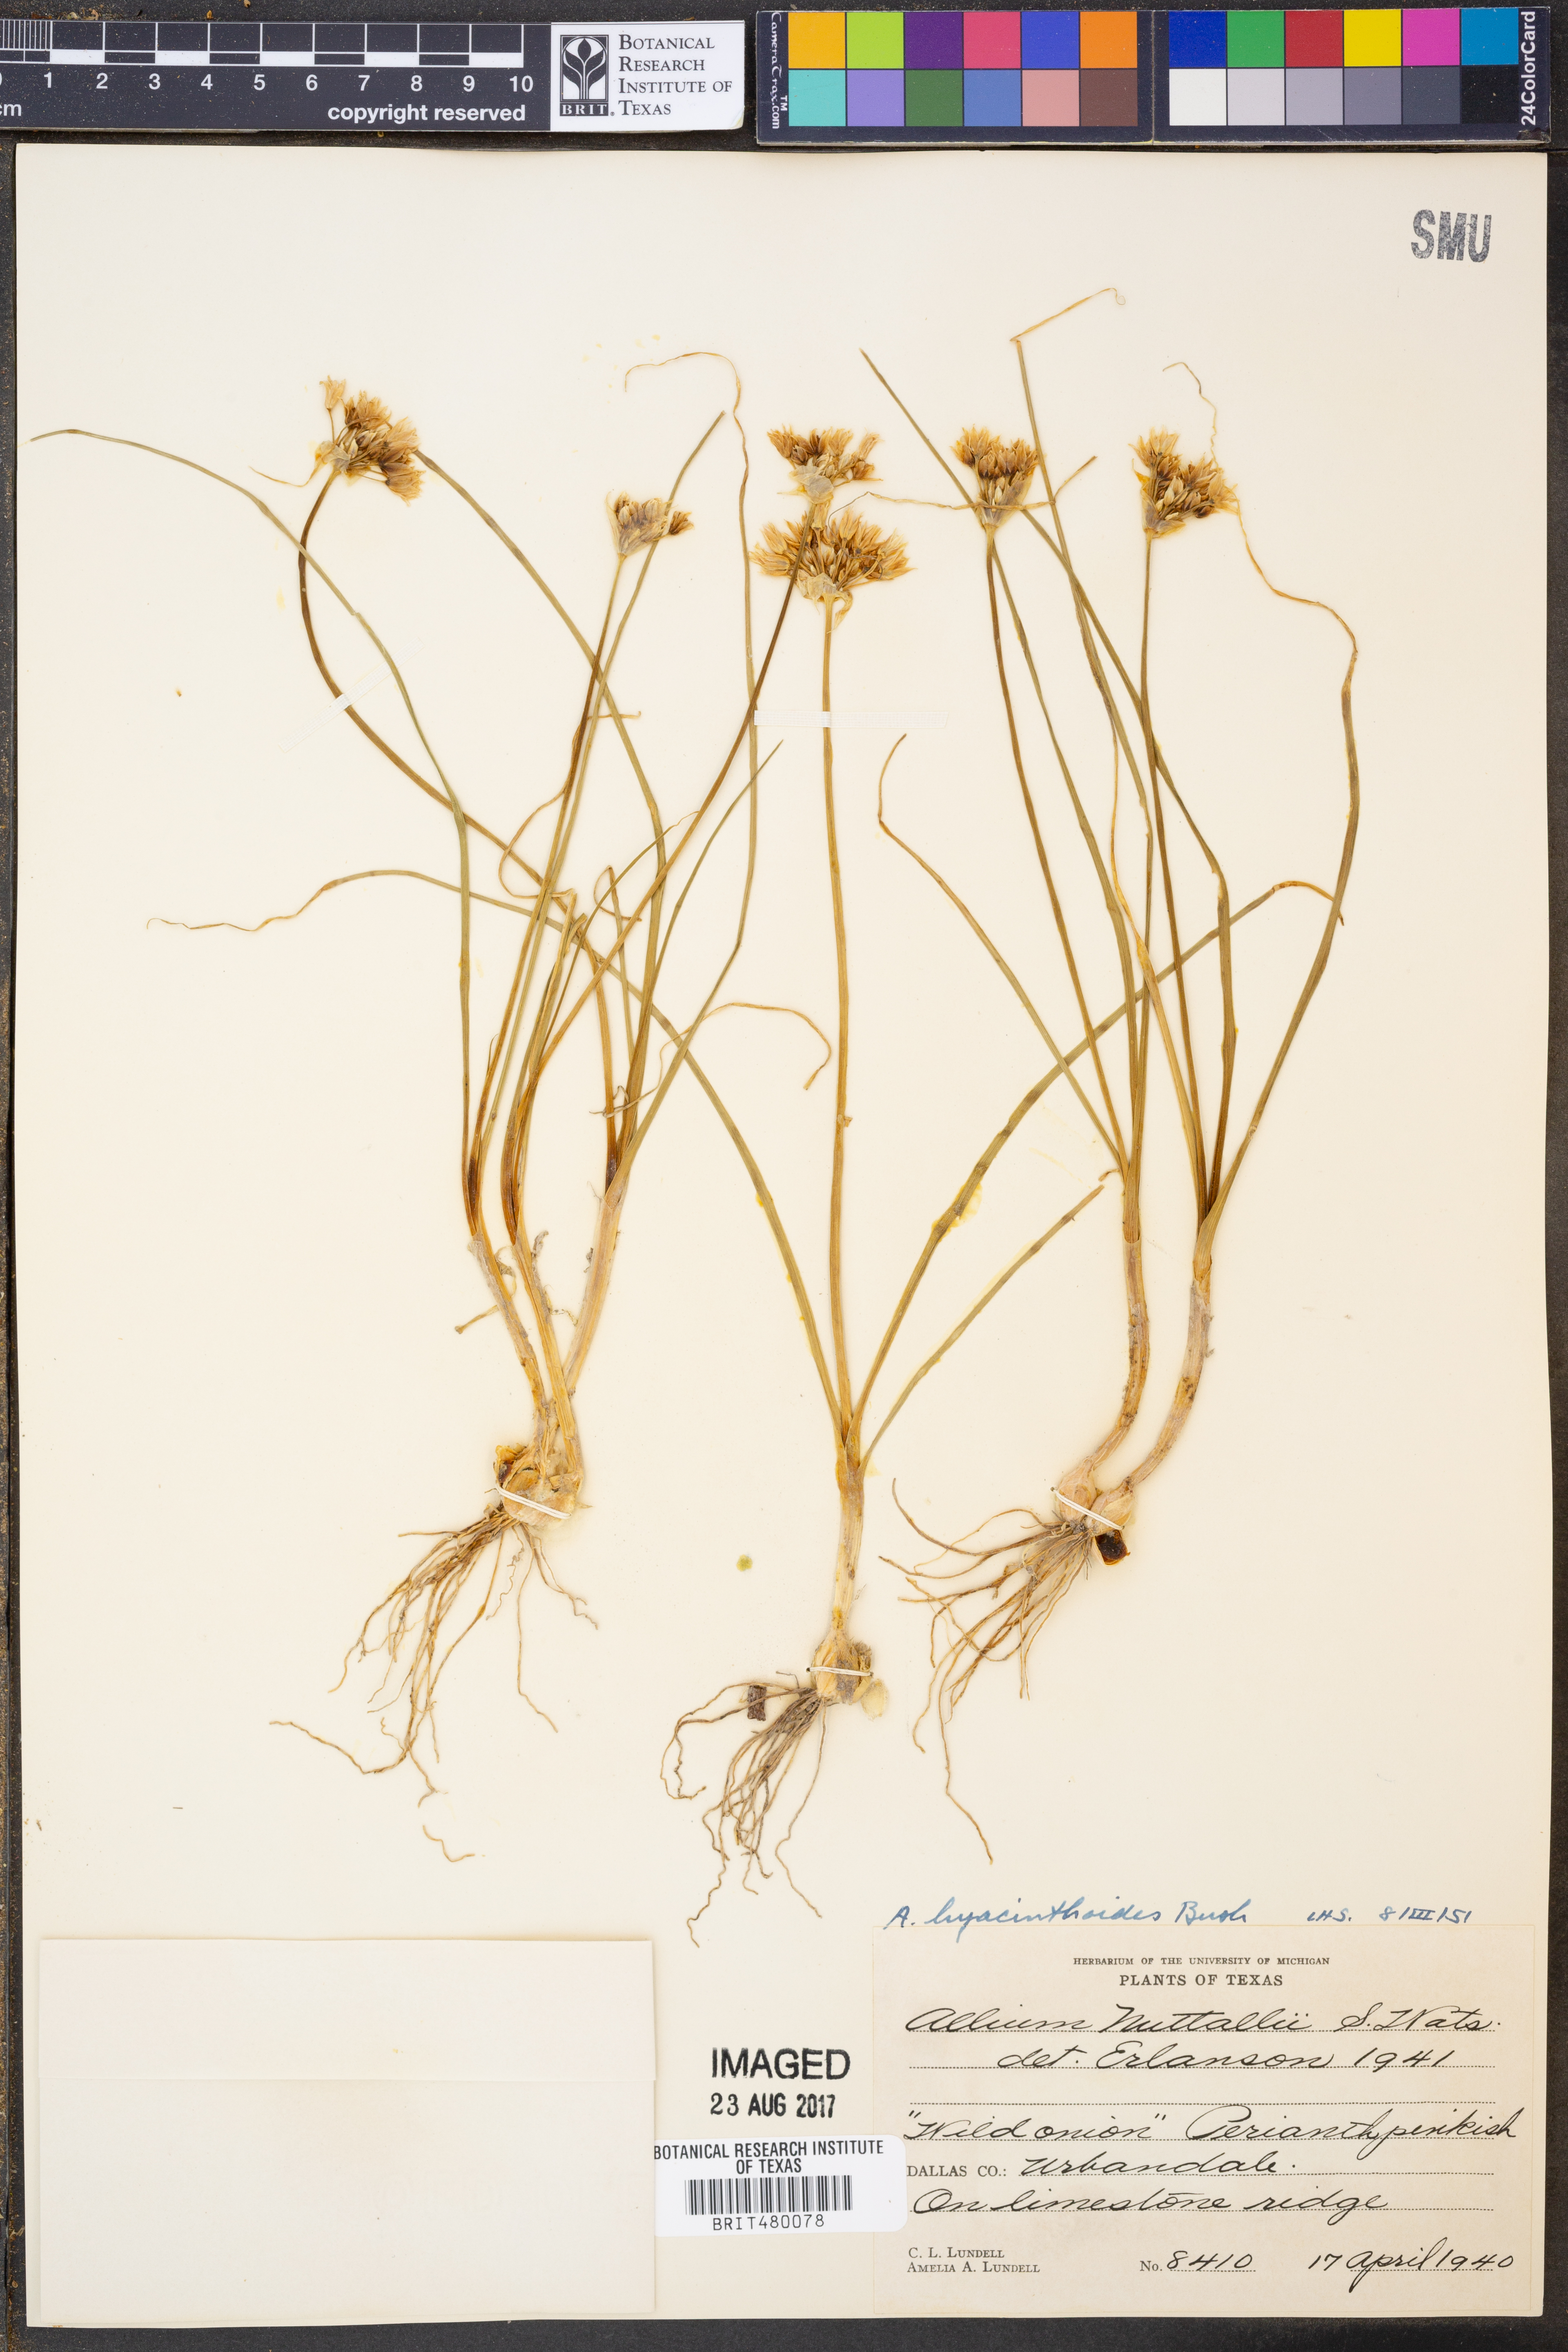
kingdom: Plantae
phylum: Tracheophyta
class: Liliopsida
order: Asparagales
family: Amaryllidaceae
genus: Allium
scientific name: Allium canadense
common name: Meadow garlic
